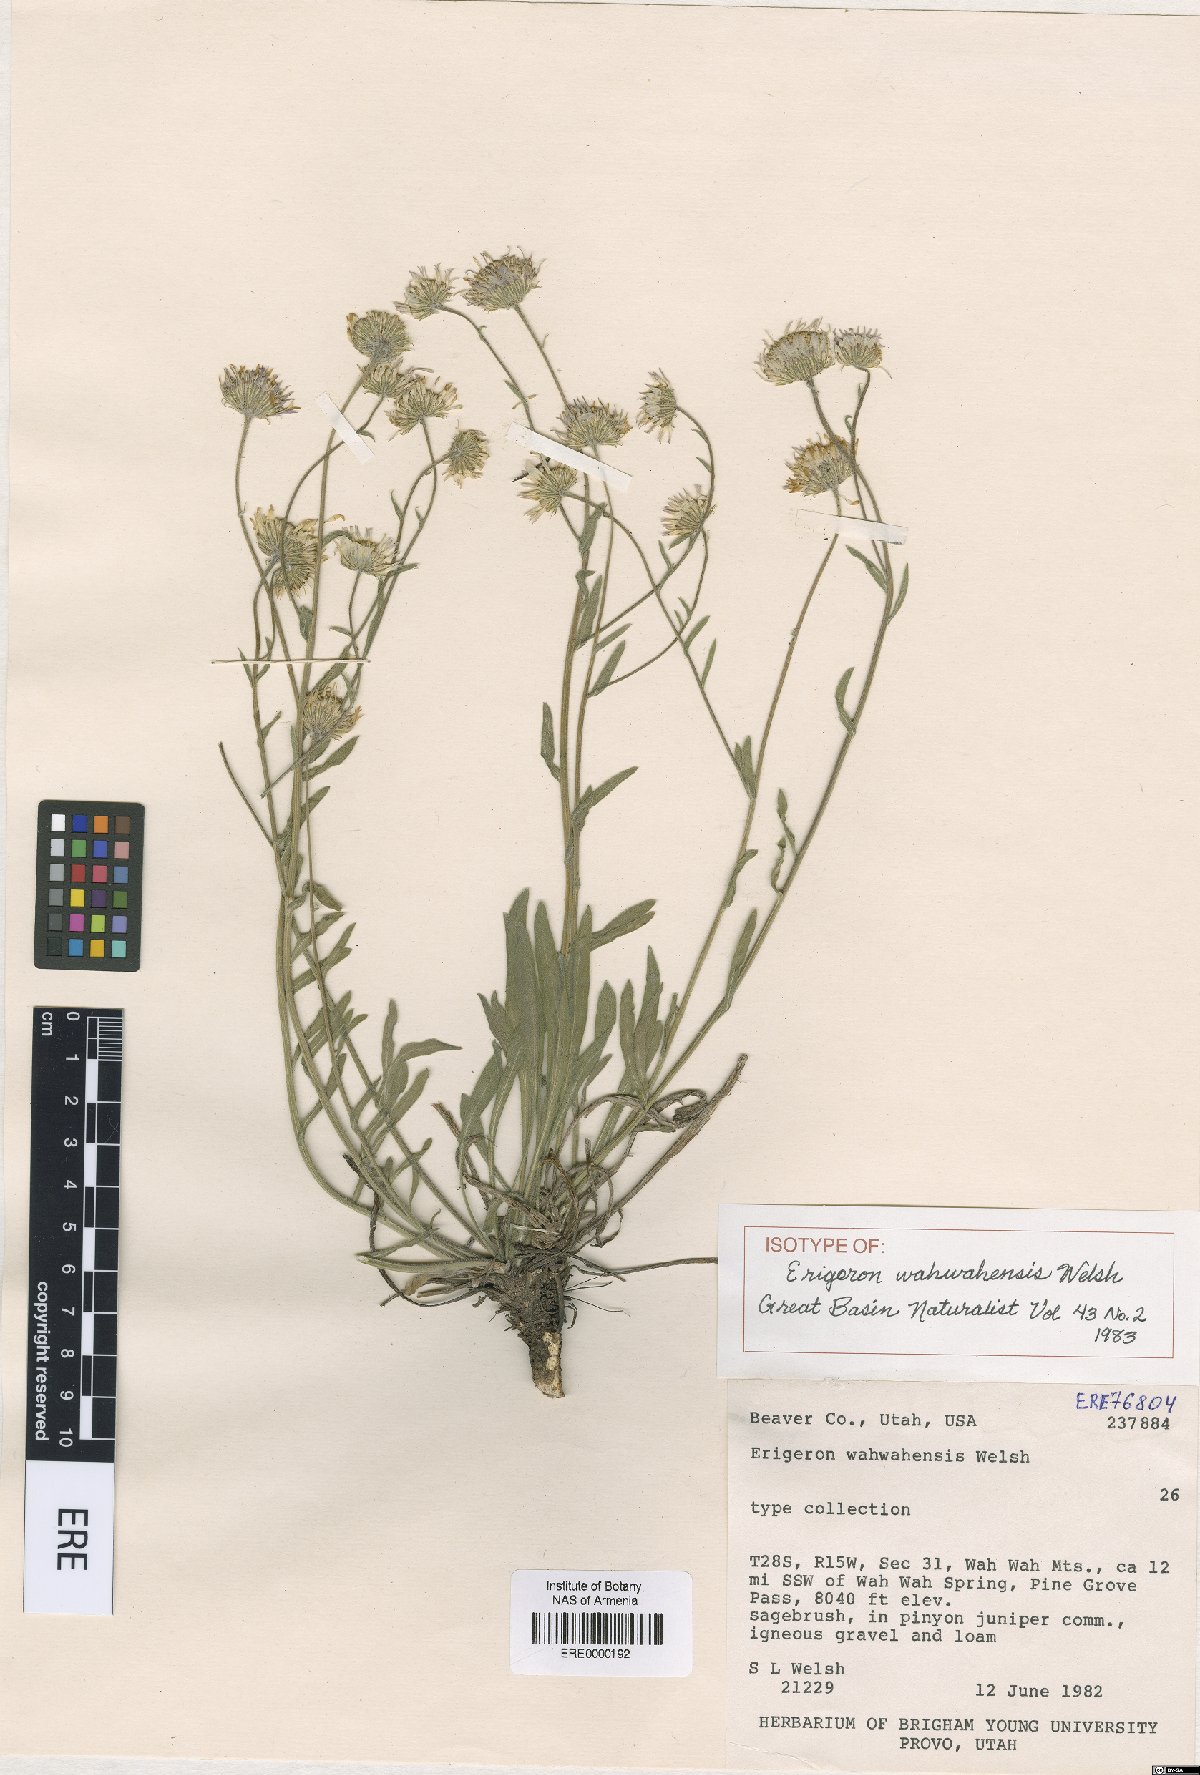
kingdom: Plantae
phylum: Tracheophyta
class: Magnoliopsida
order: Asterales
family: Asteraceae
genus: Erigeron
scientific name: Erigeron jonesii
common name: Jones's fleabane
